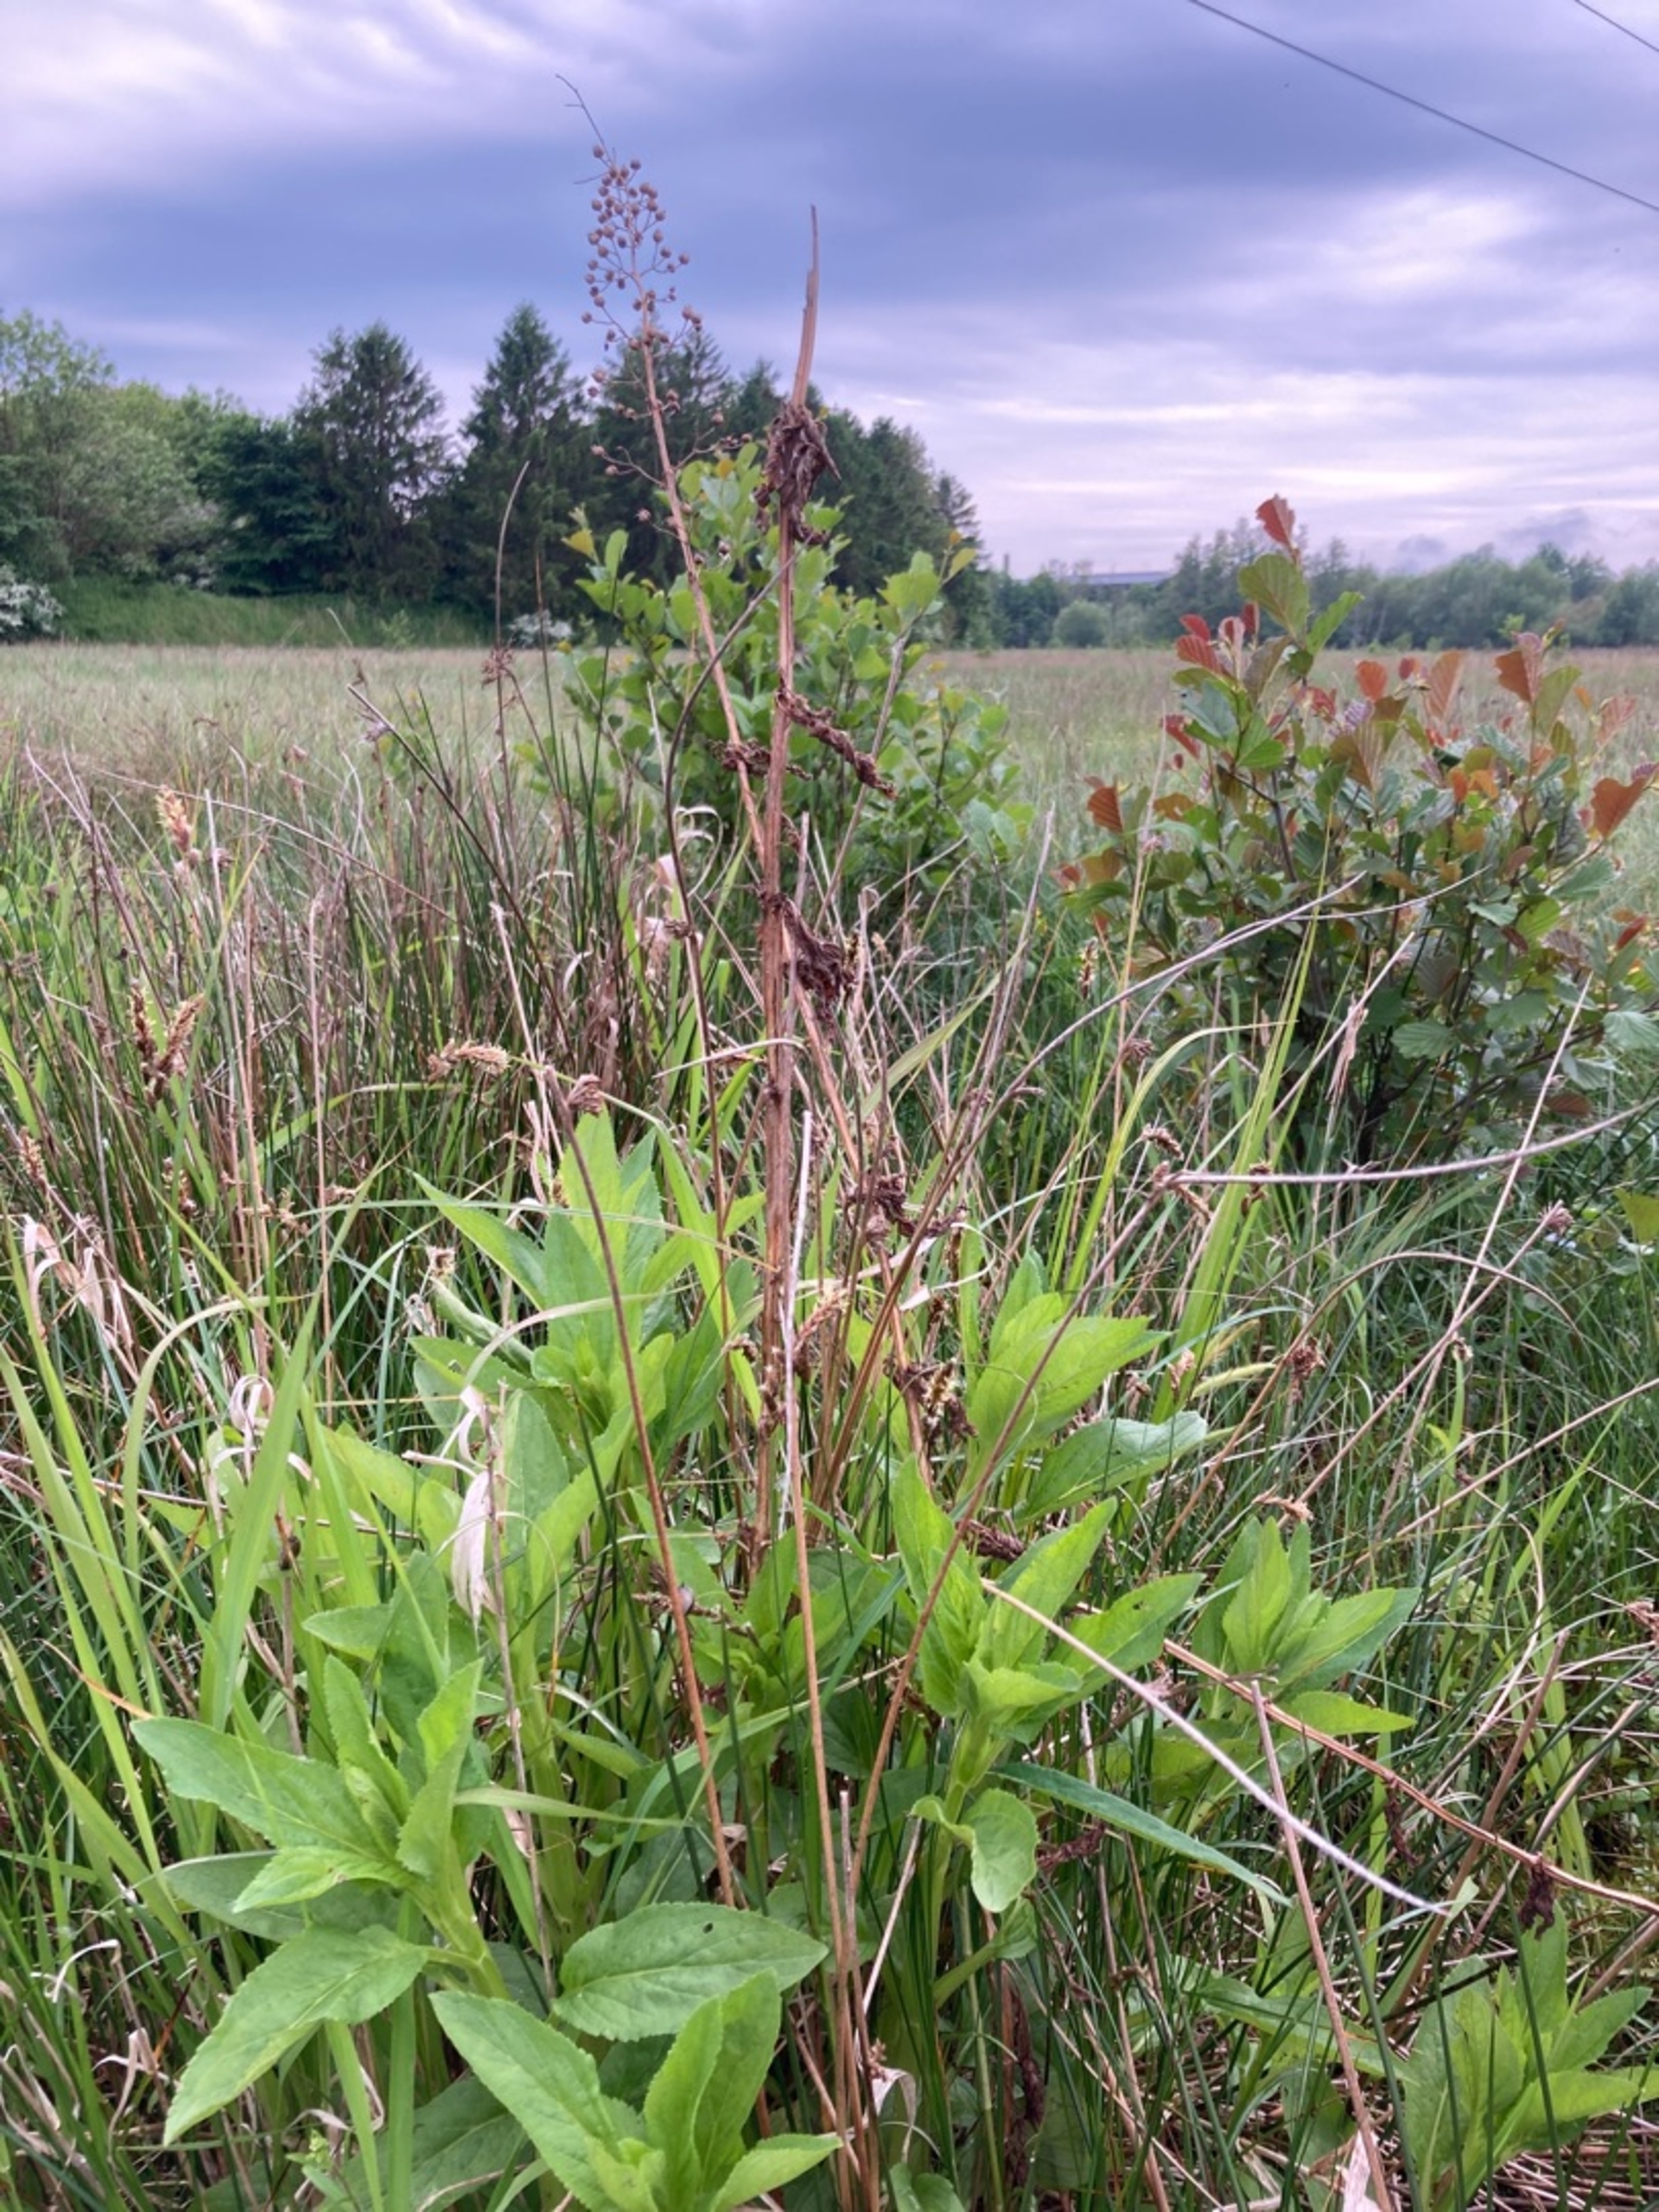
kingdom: Plantae
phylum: Tracheophyta
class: Magnoliopsida
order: Lamiales
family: Scrophulariaceae
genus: Scrophularia
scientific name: Scrophularia umbrosa
